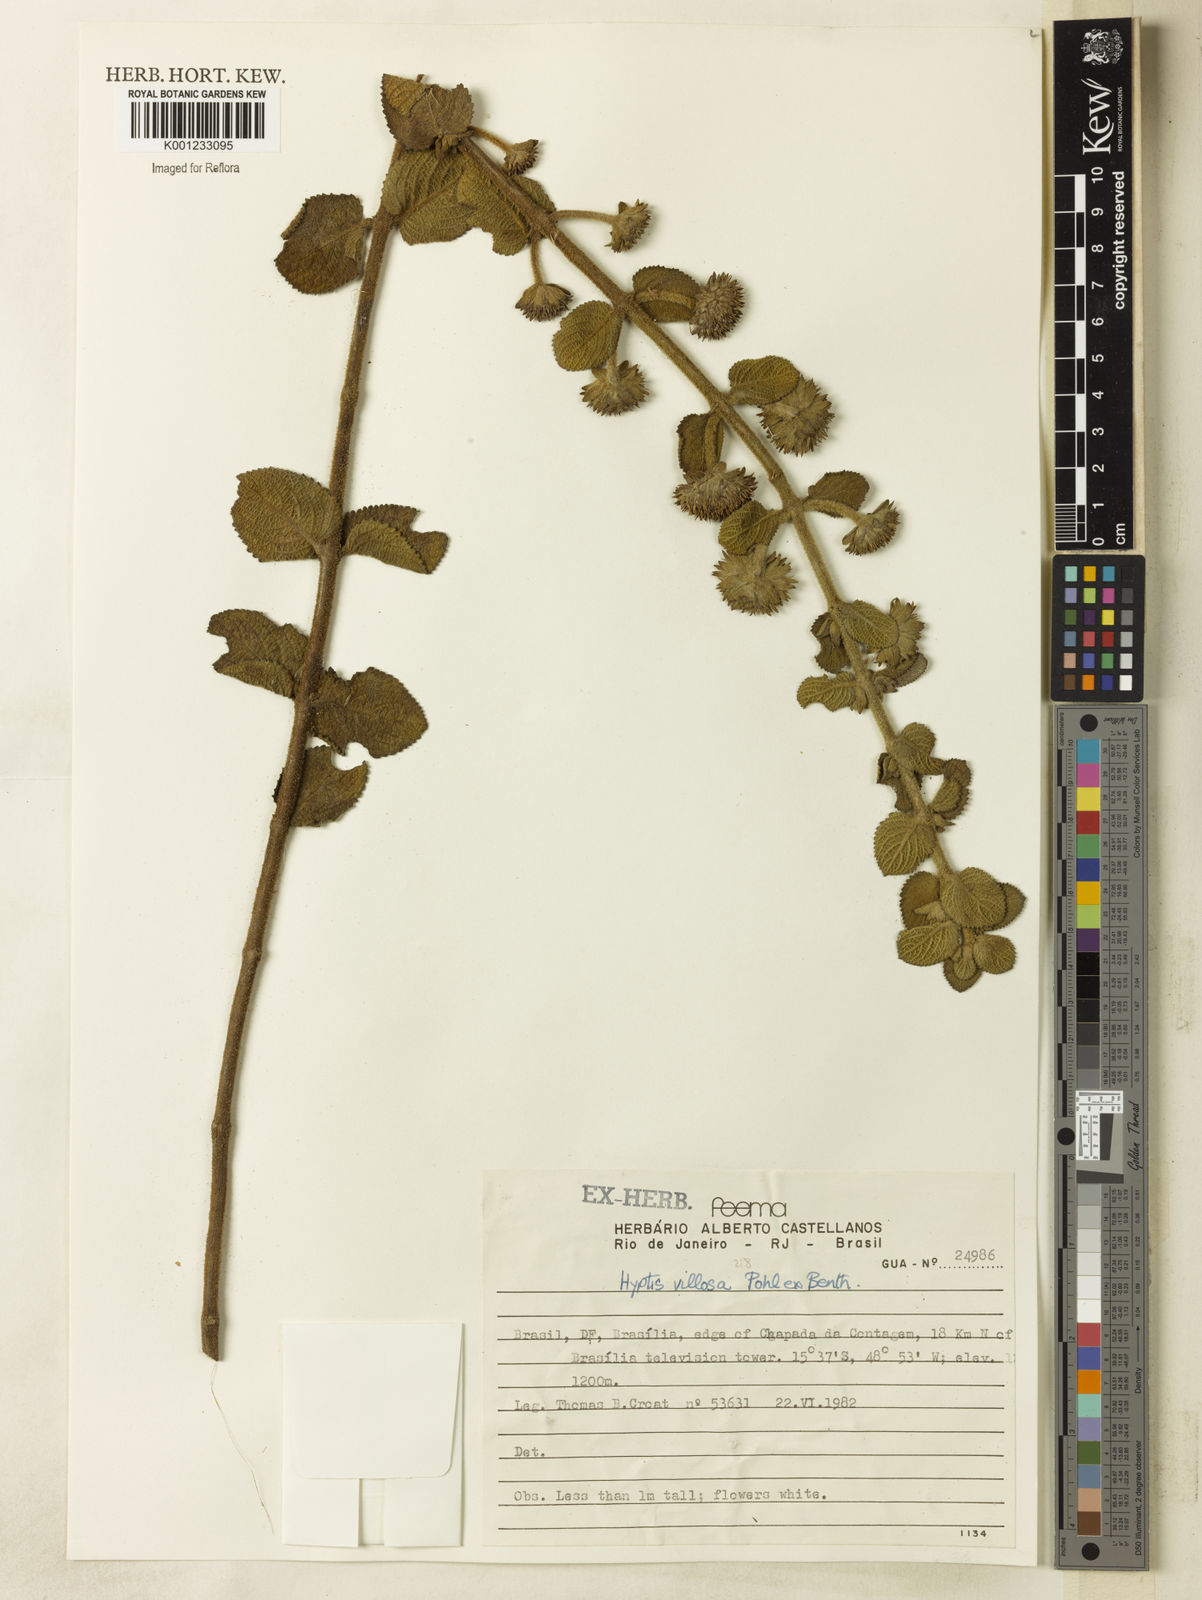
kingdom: Plantae
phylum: Tracheophyta
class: Magnoliopsida
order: Lamiales
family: Lamiaceae
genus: Hyptis
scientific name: Hyptis villosa
